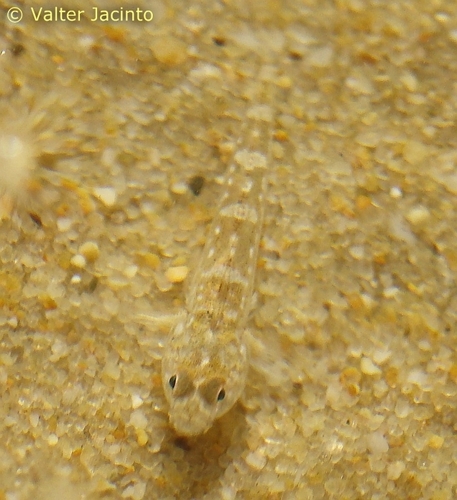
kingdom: Animalia
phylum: Chordata
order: Perciformes
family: Gobiidae
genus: Pomatoschistus
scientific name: Pomatoschistus
